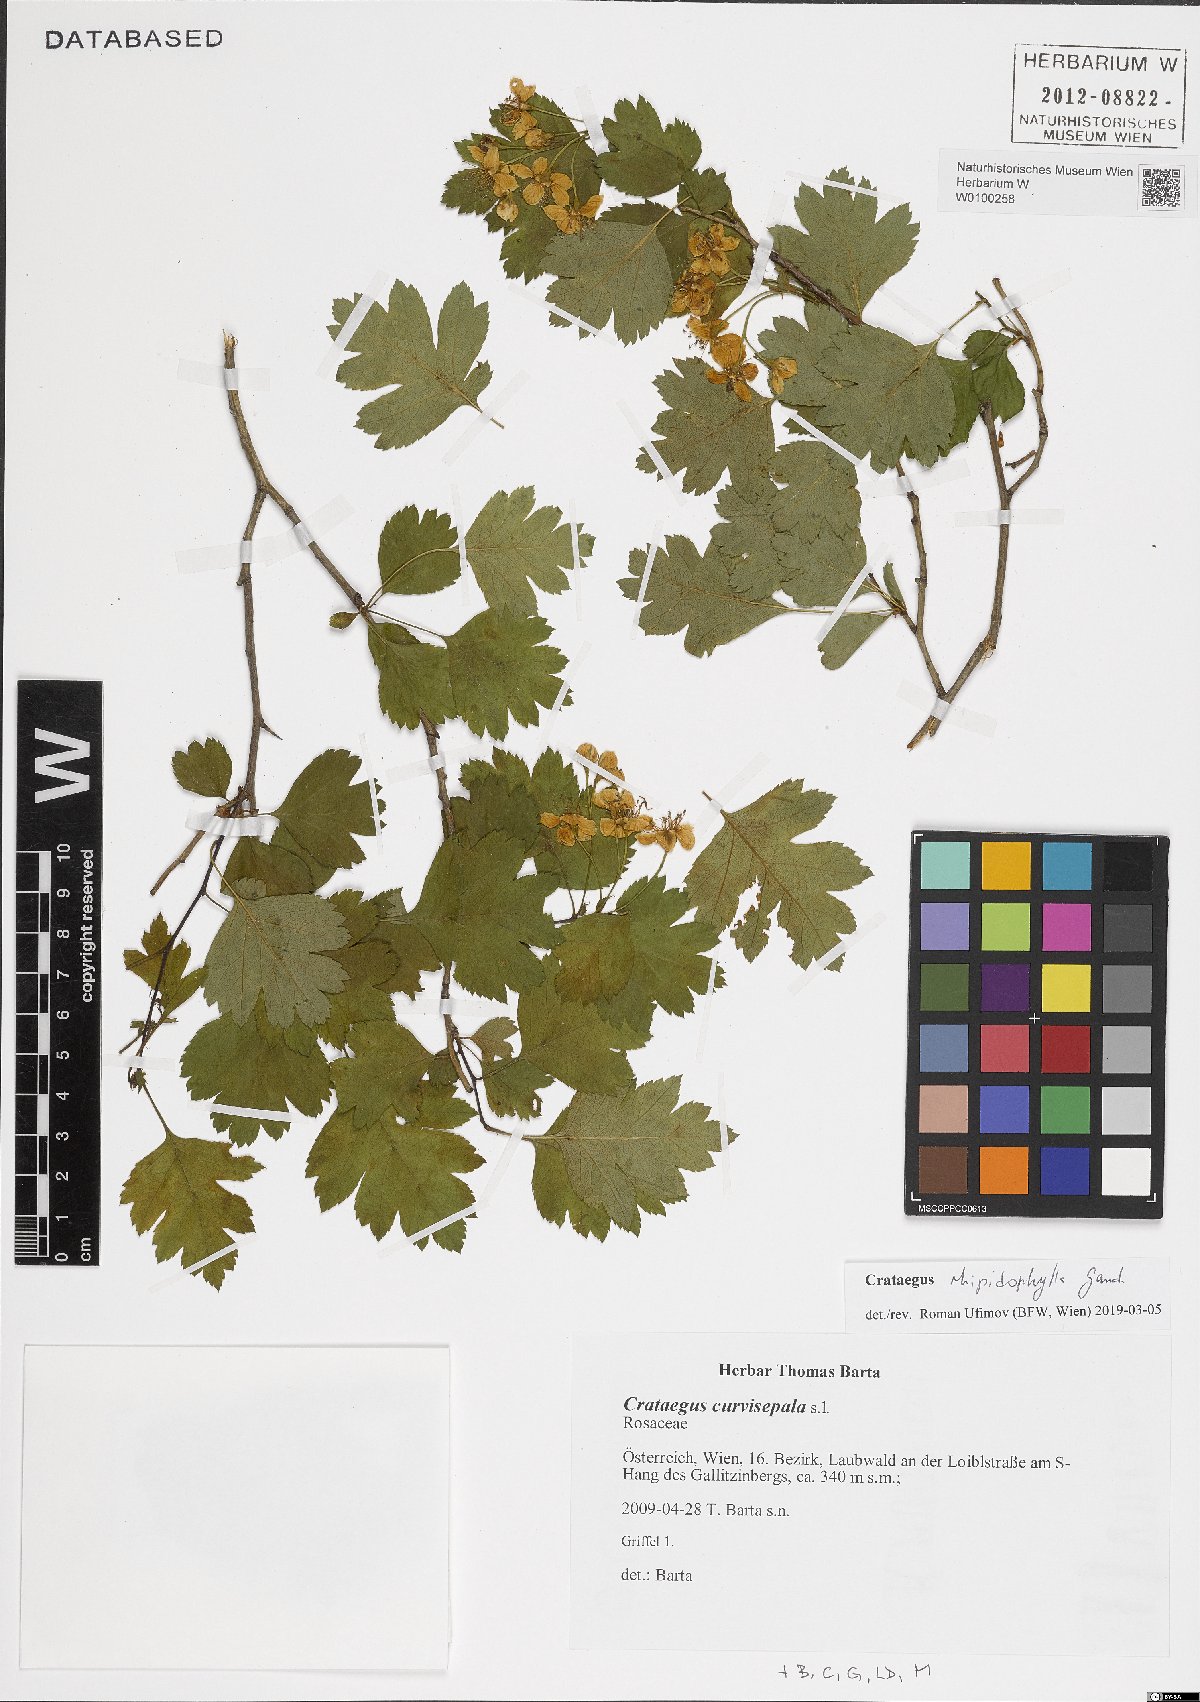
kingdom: Plantae
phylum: Tracheophyta
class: Magnoliopsida
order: Rosales
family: Rosaceae
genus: Crataegus
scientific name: Crataegus rhipidophylla
